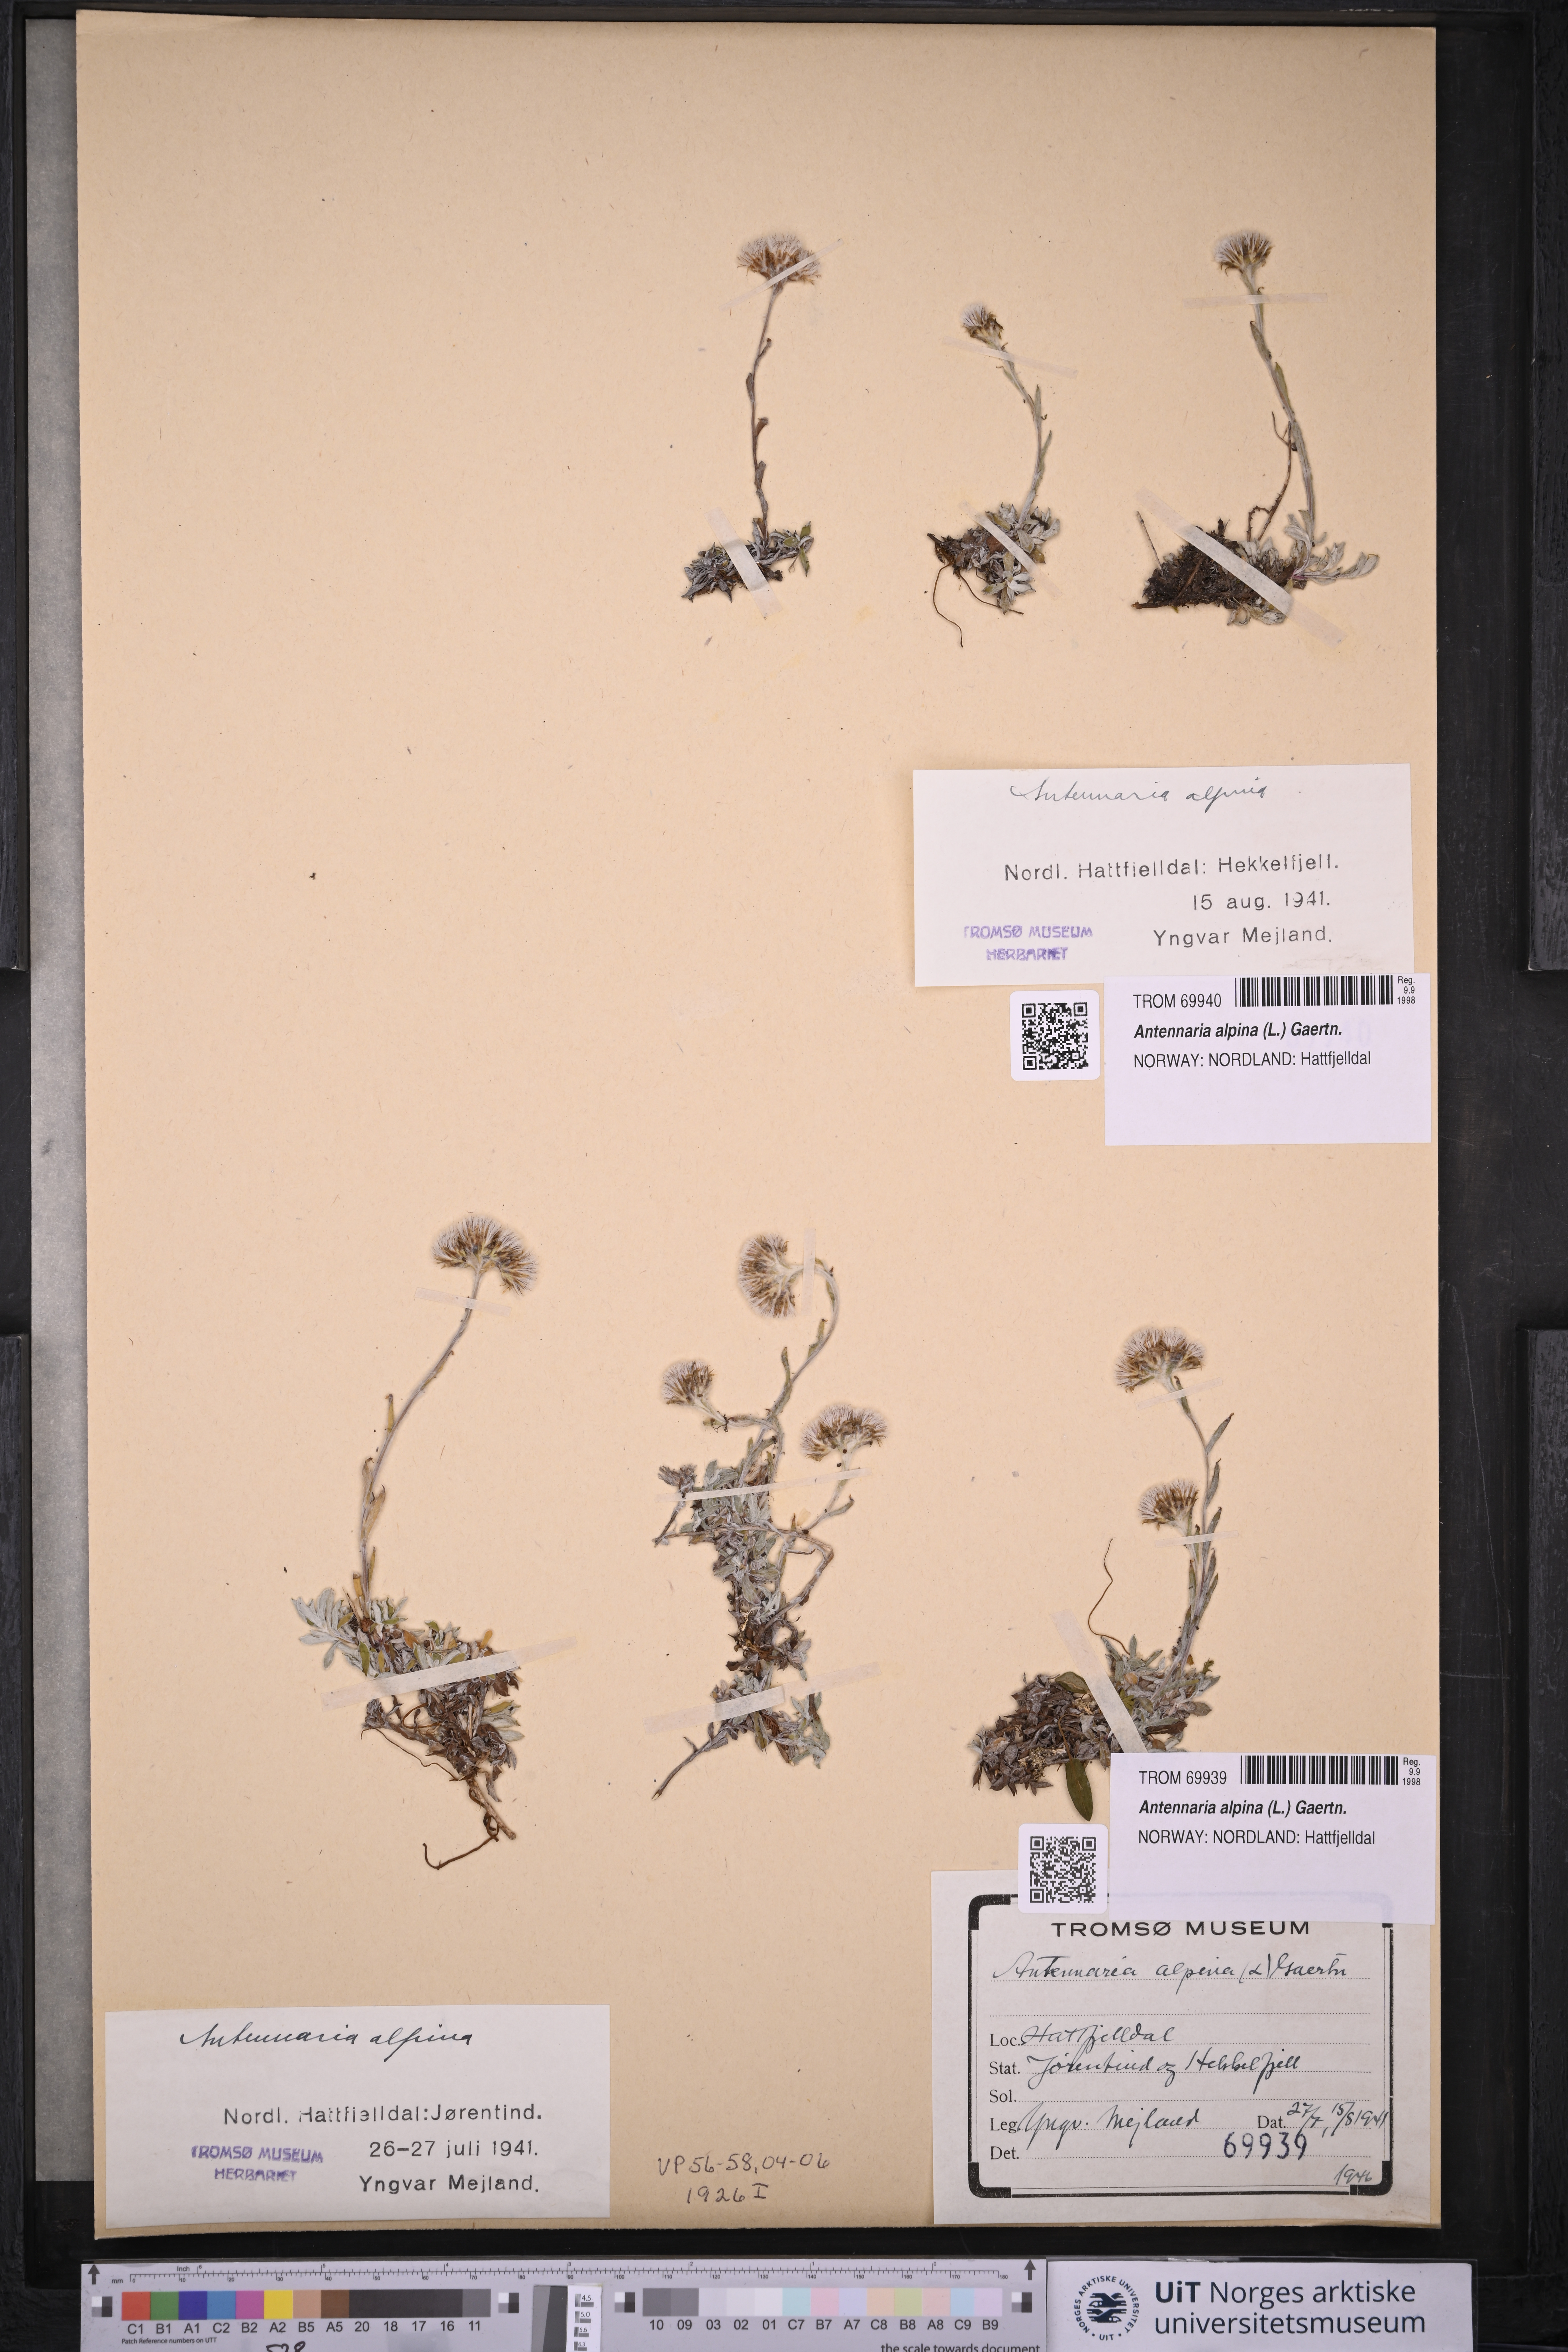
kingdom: Plantae
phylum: Tracheophyta
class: Magnoliopsida
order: Asterales
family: Asteraceae
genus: Antennaria
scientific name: Antennaria alpina
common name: Alpine pussytoes
